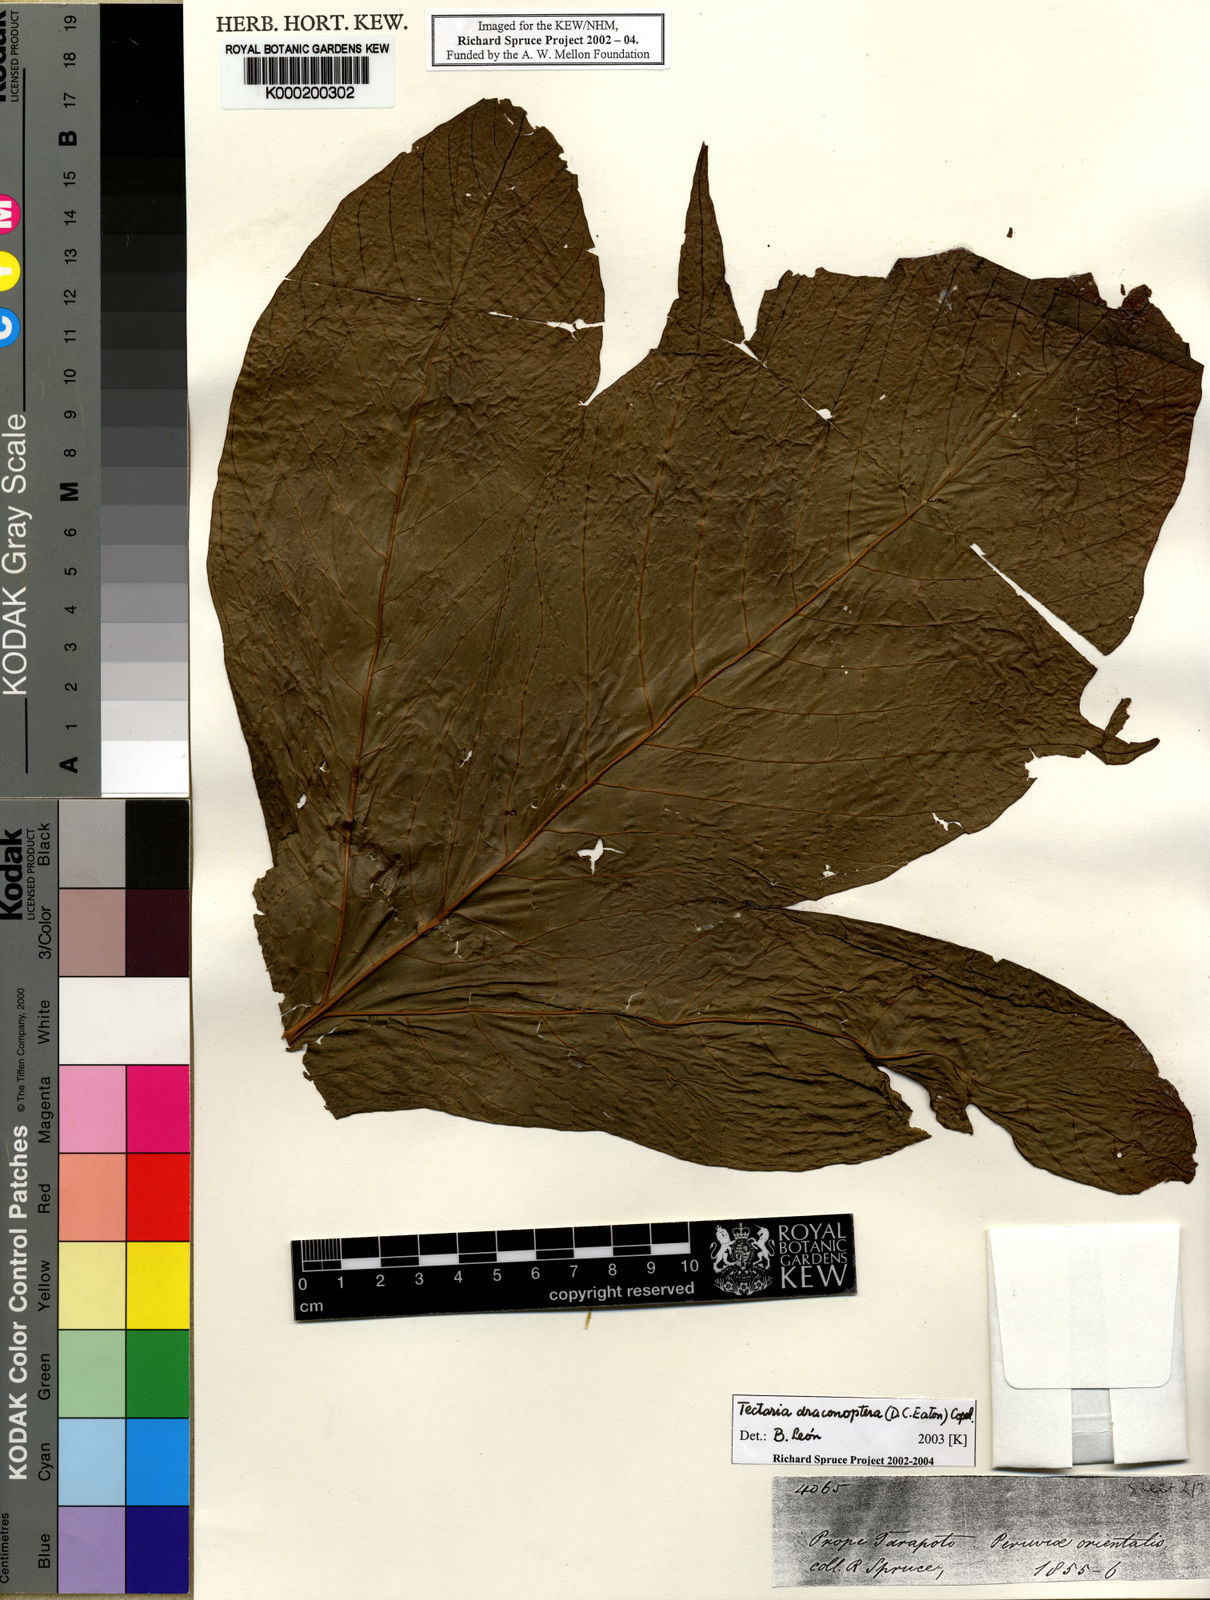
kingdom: Plantae
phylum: Tracheophyta
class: Polypodiopsida
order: Polypodiales
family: Tectariaceae
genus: Draconopteris
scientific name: Draconopteris draconoptera
